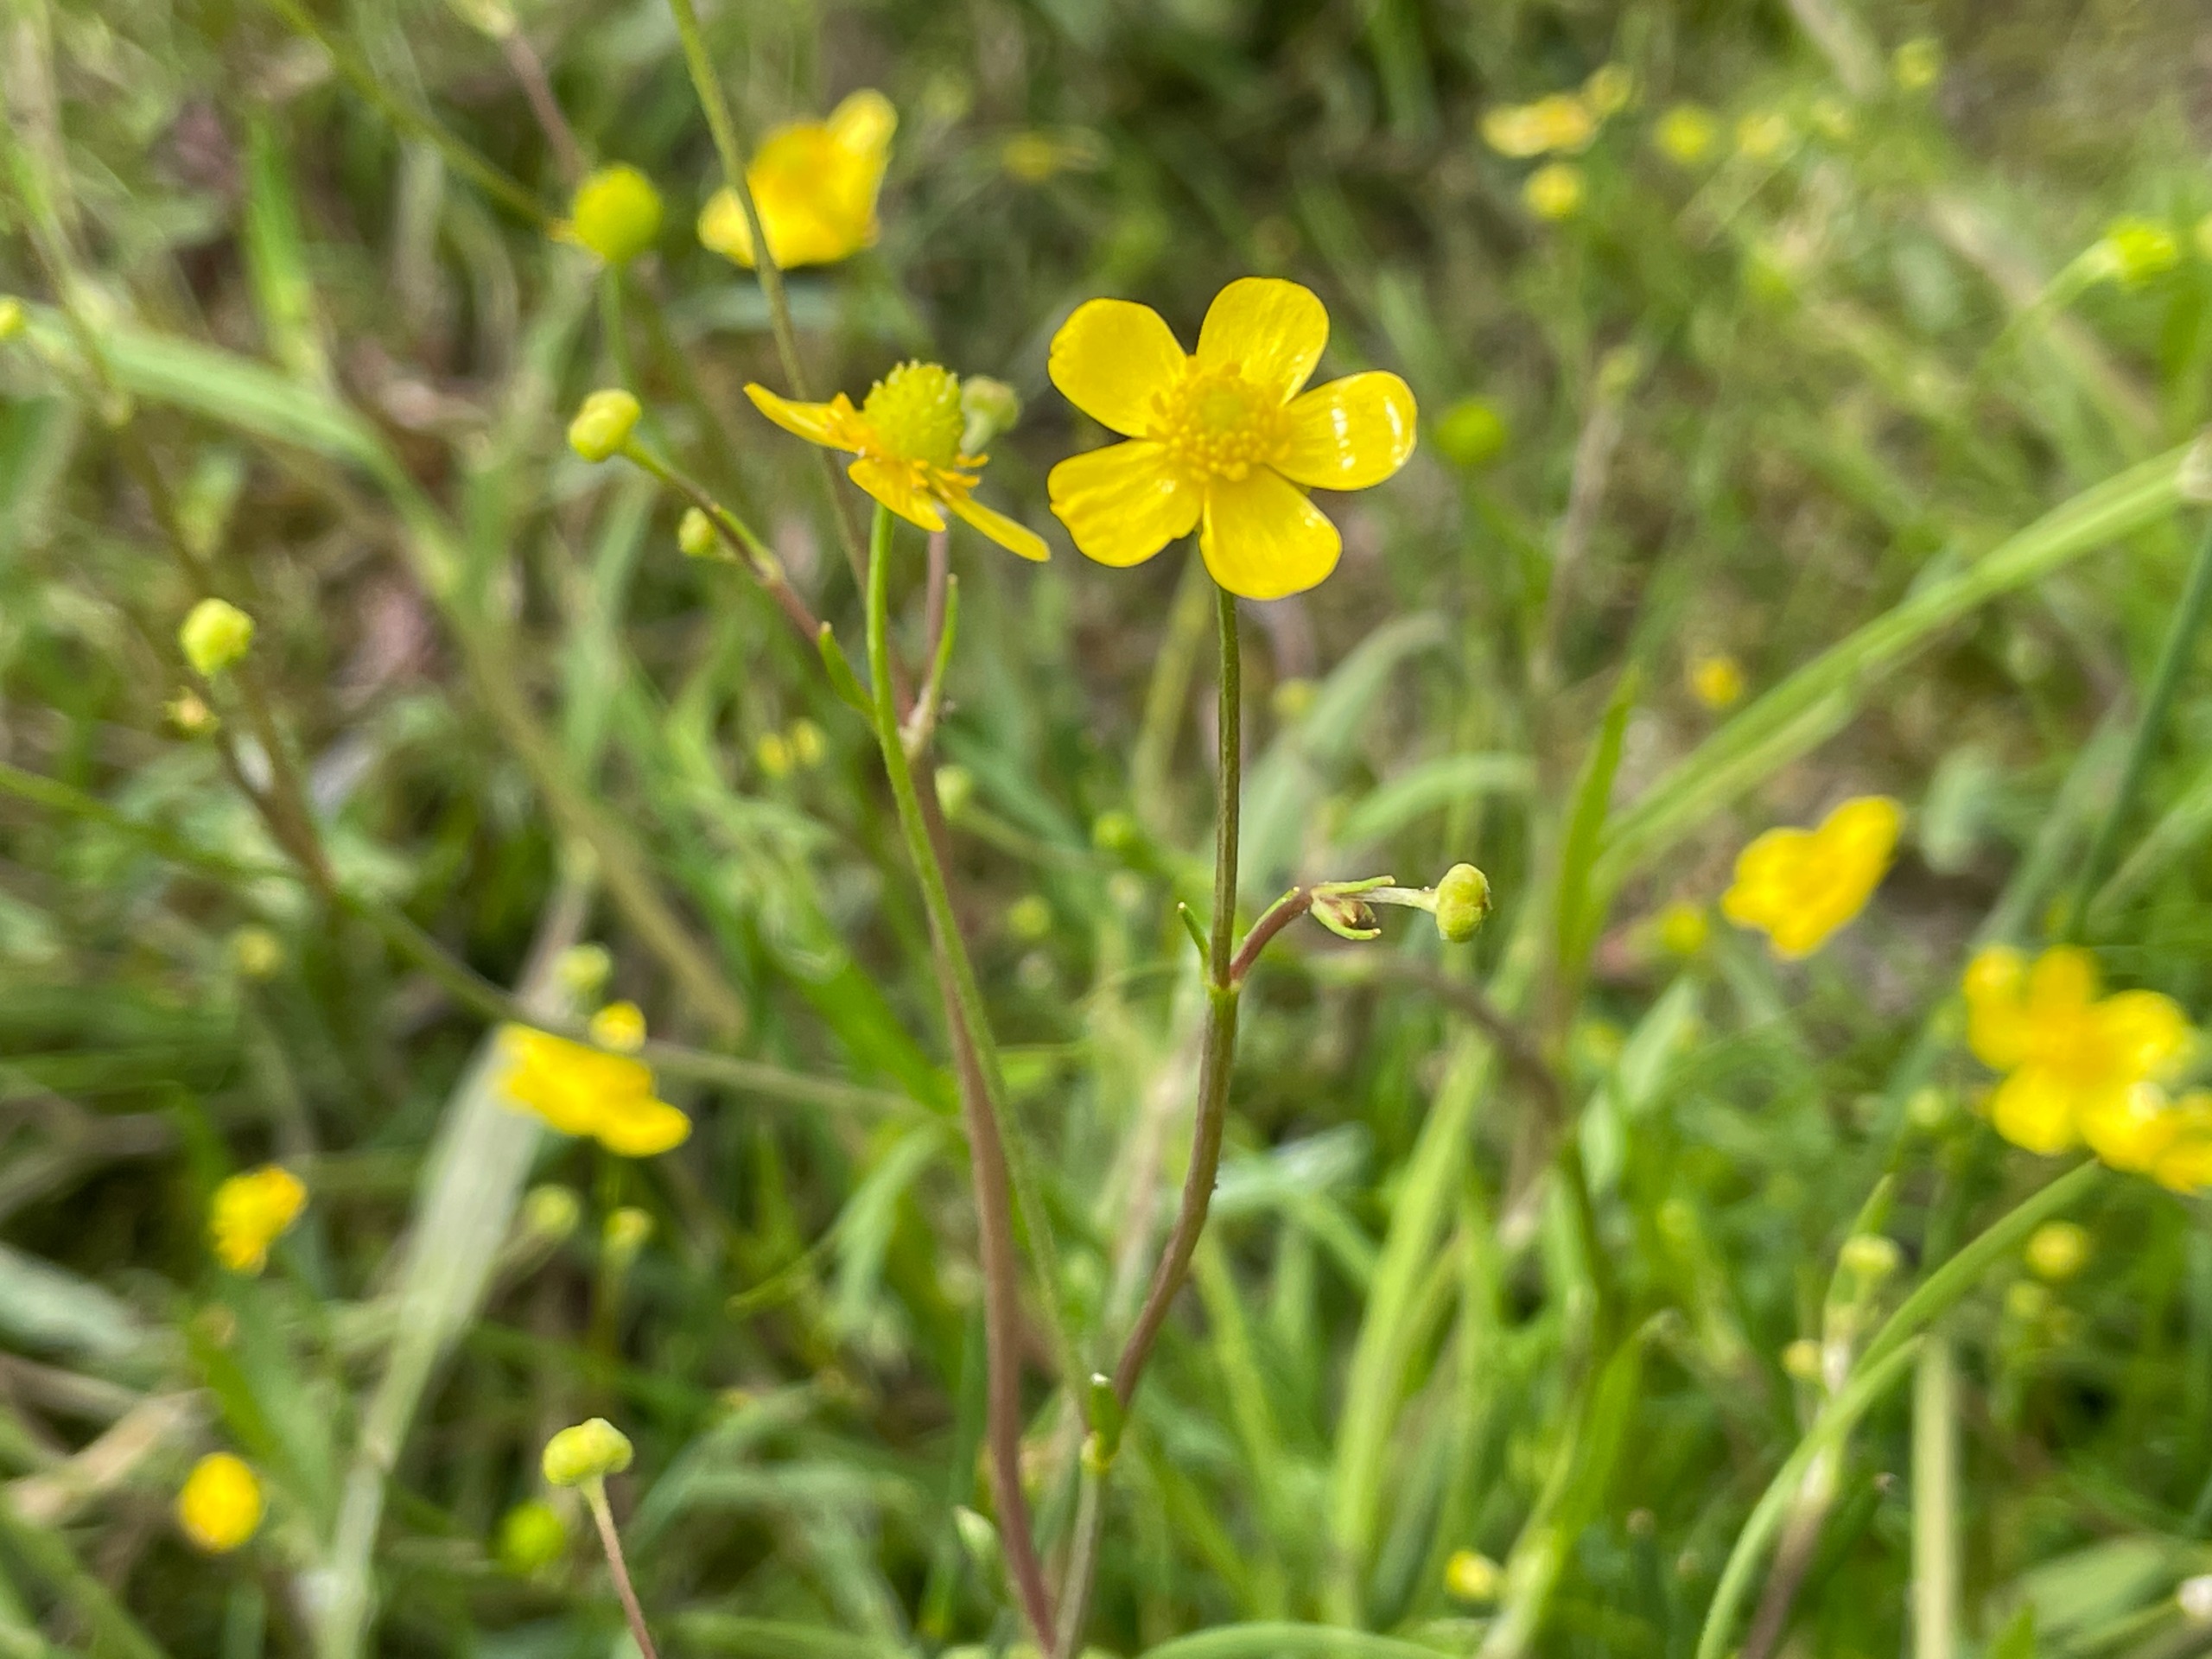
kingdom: Plantae
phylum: Tracheophyta
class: Magnoliopsida
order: Ranunculales
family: Ranunculaceae
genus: Ranunculus
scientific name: Ranunculus flammula
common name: Kær-ranunkel
